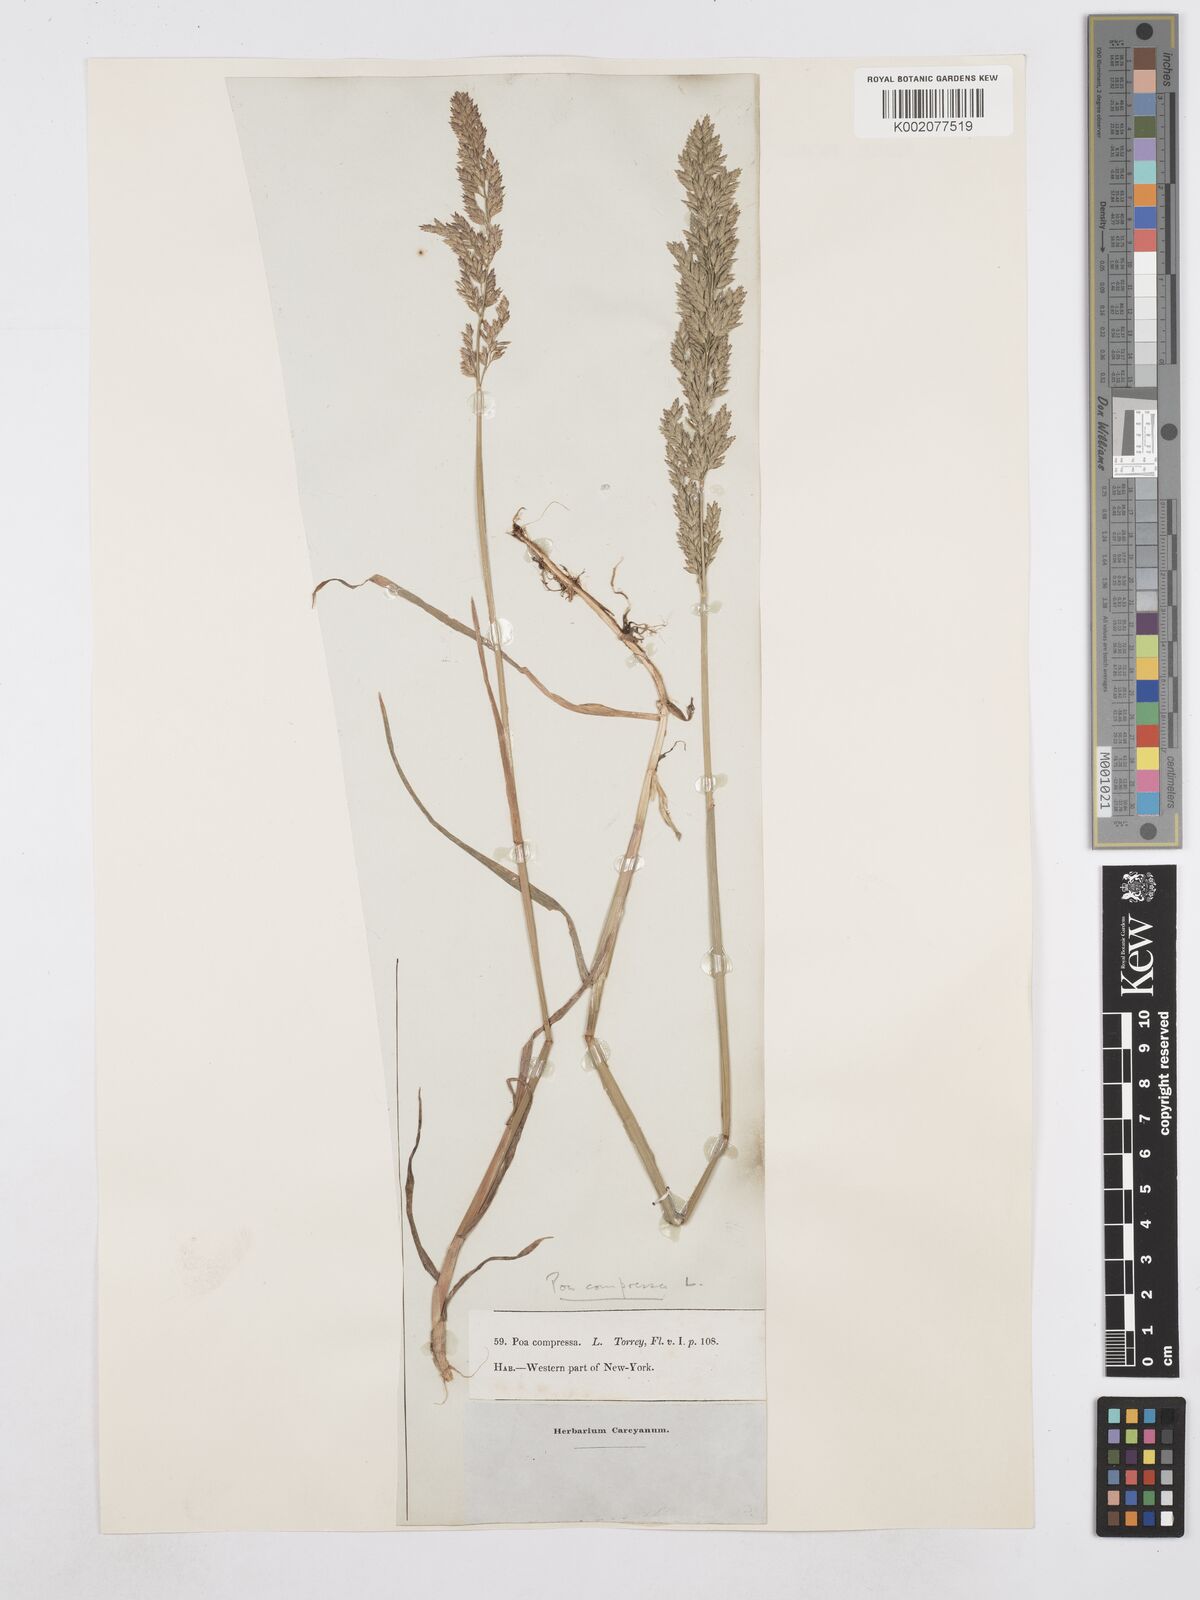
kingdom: Plantae
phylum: Tracheophyta
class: Liliopsida
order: Poales
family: Poaceae
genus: Poa
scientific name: Poa compressa
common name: Canada bluegrass
